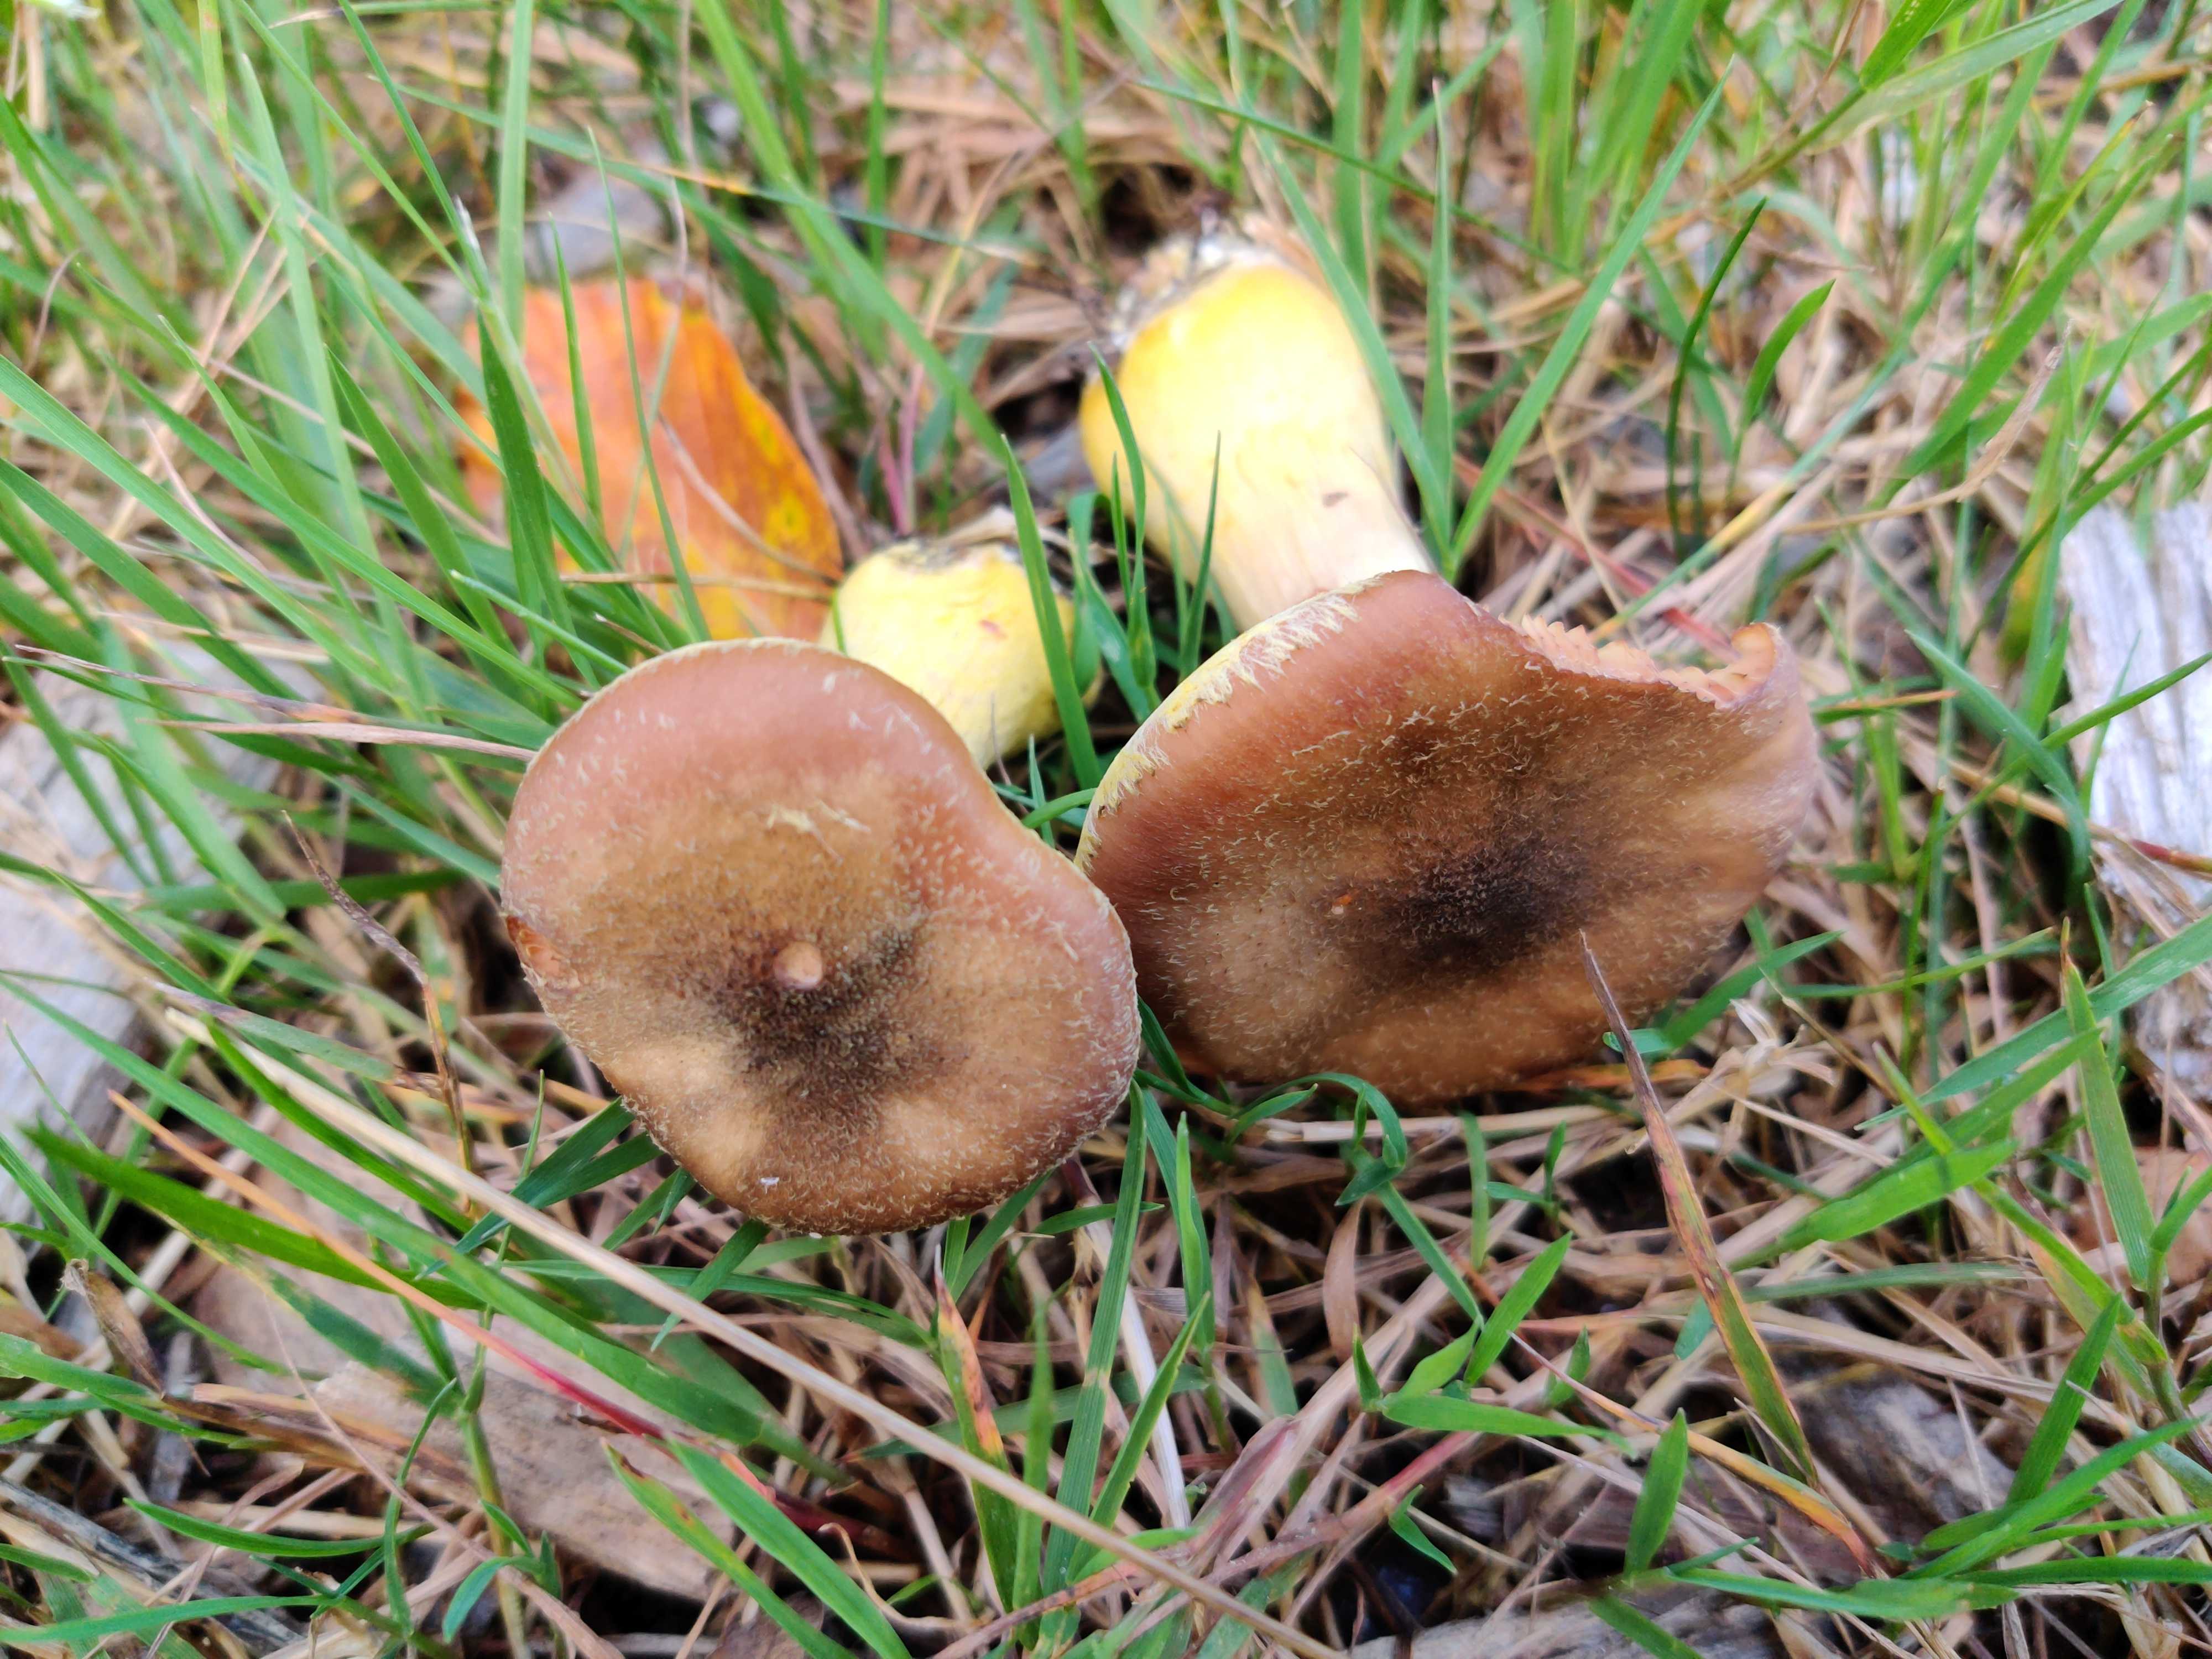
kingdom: Fungi
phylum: Basidiomycota
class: Agaricomycetes
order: Agaricales
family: Physalacriaceae
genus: Armillaria
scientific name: Armillaria lutea
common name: køllestokket honningsvamp
